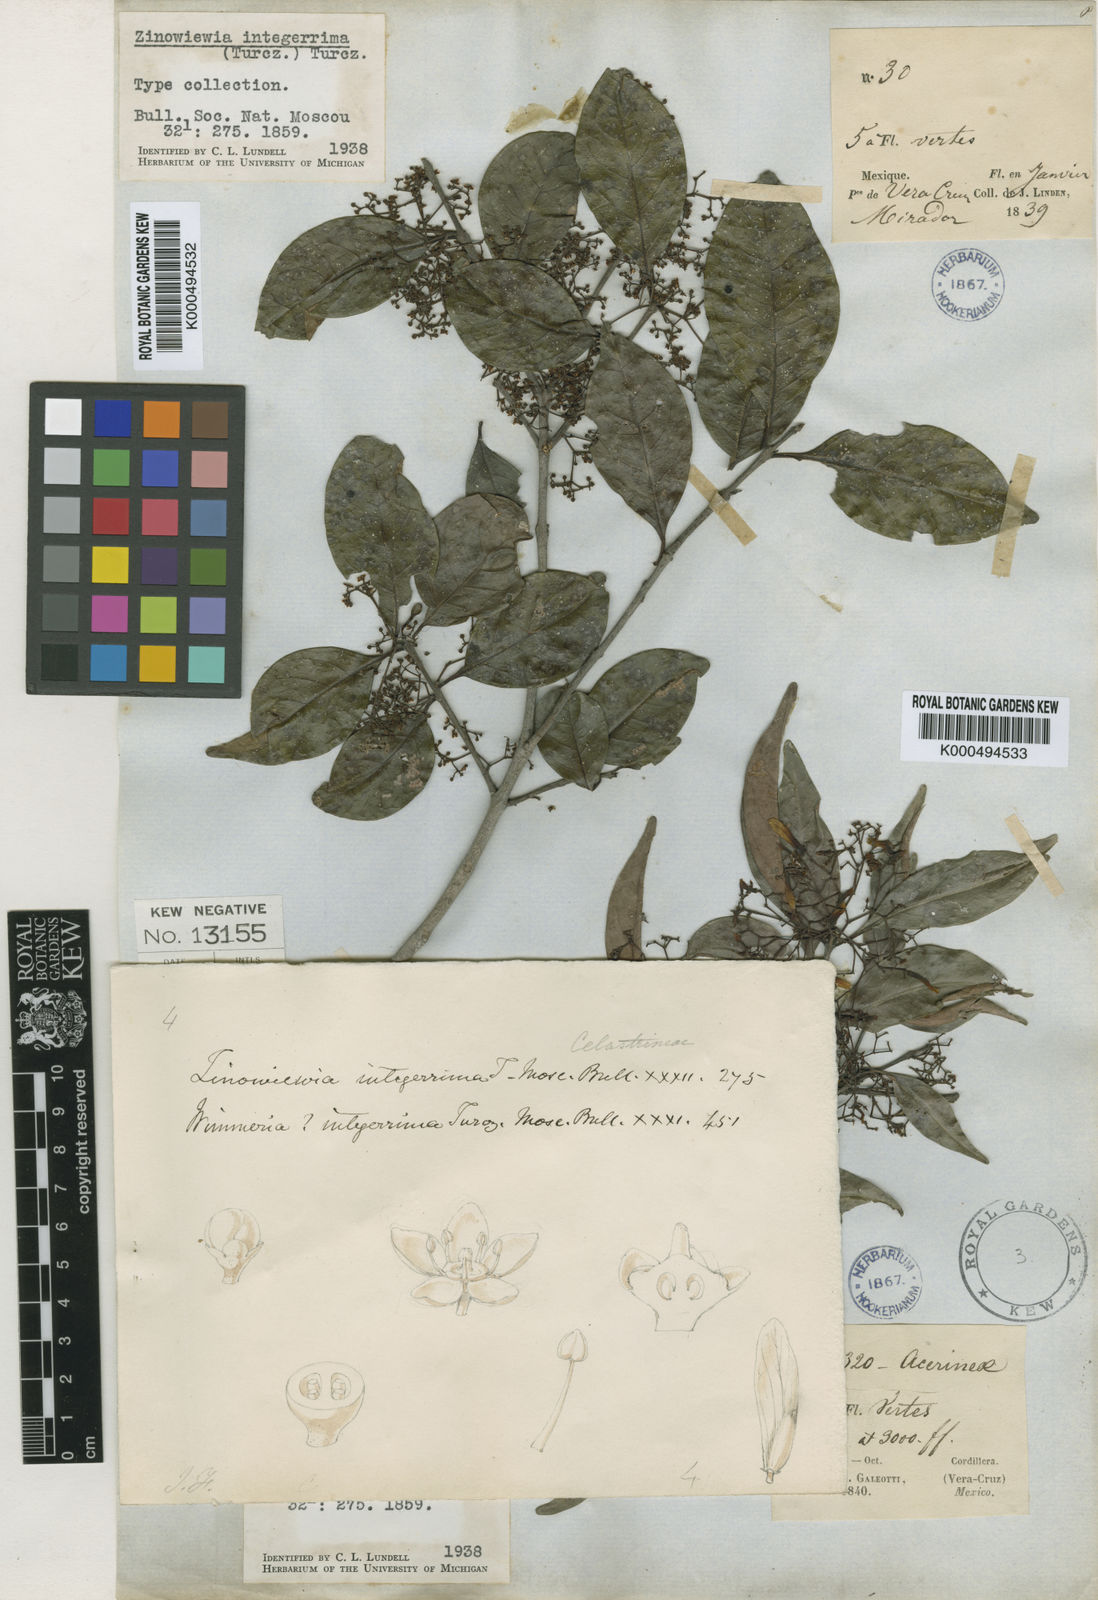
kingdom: Plantae
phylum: Tracheophyta
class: Magnoliopsida
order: Celastrales
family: Celastraceae
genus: Zinowiewia
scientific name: Zinowiewia integerrima
